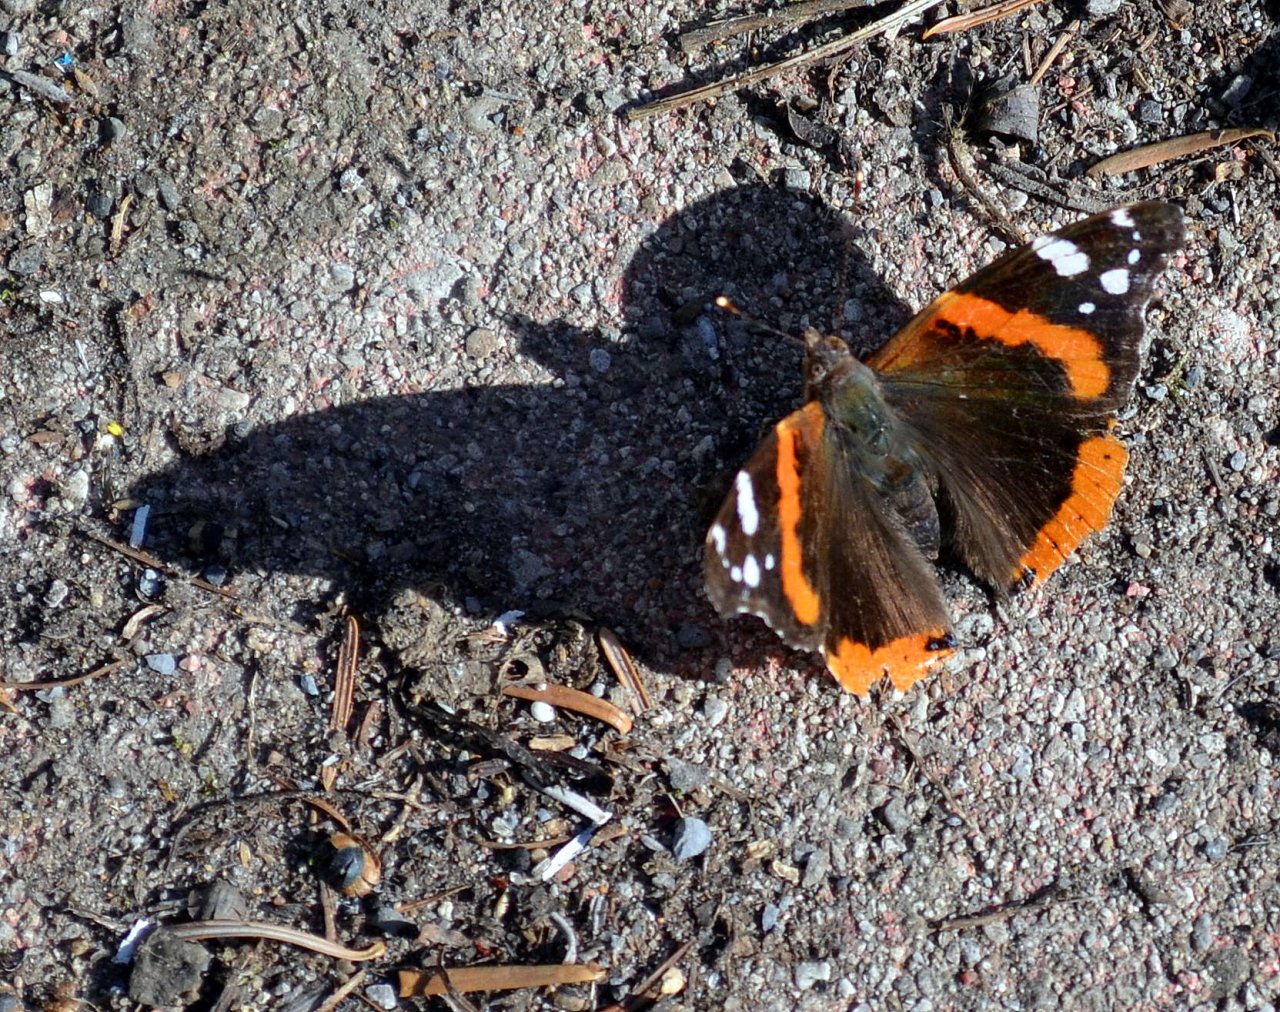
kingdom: Animalia
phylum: Arthropoda
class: Insecta
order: Lepidoptera
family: Nymphalidae
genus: Vanessa
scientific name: Vanessa atalanta
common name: Red Admiral
